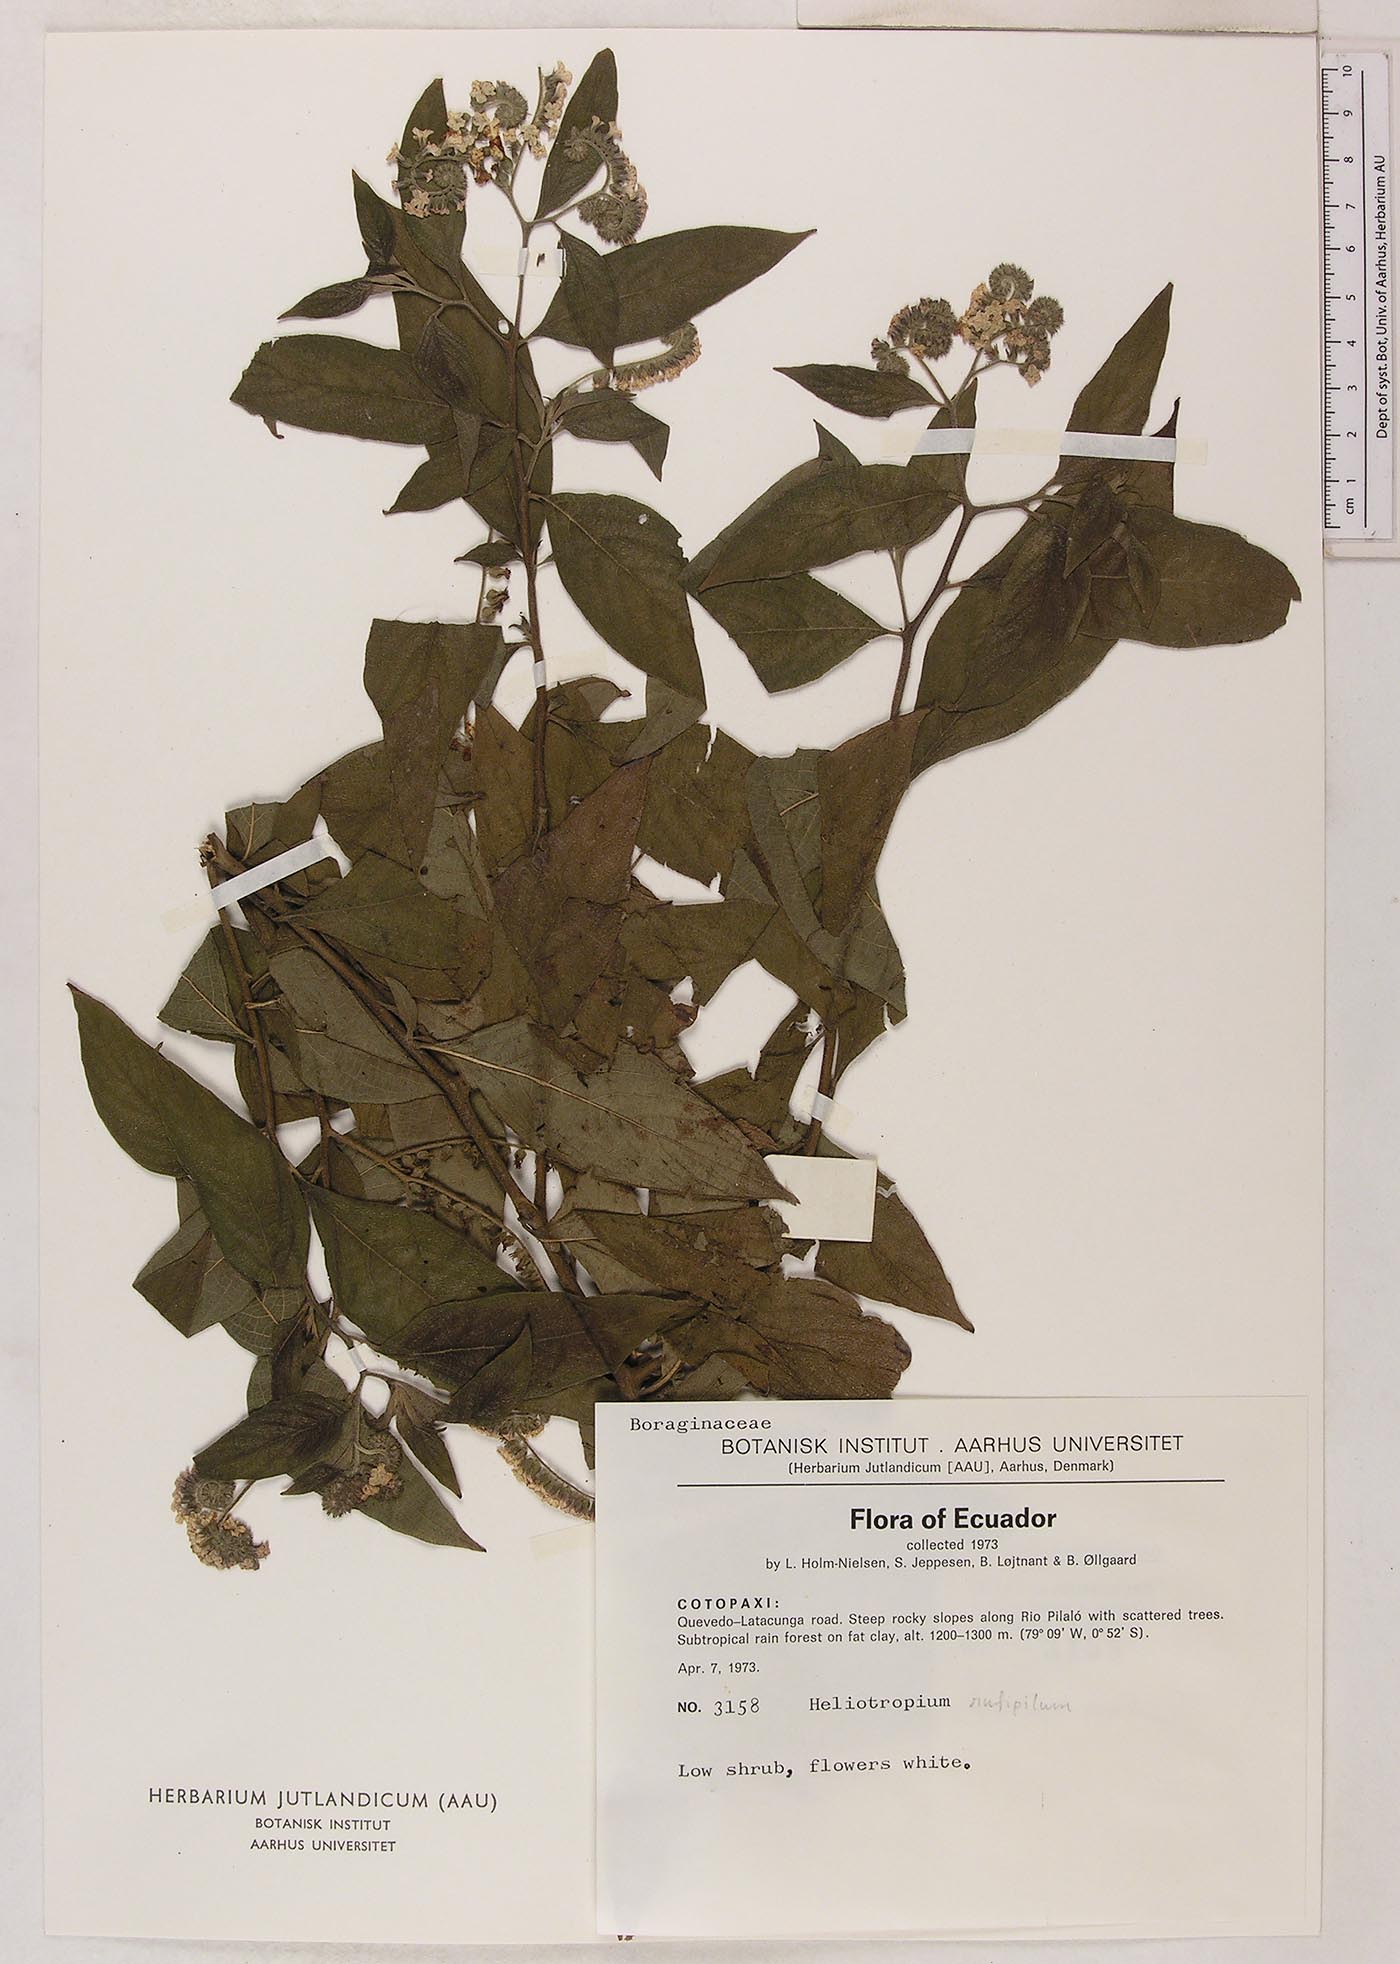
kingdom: Plantae
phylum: Tracheophyta
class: Magnoliopsida
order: Boraginales
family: Heliotropiaceae
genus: Heliotropium
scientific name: Heliotropium rufipilum
